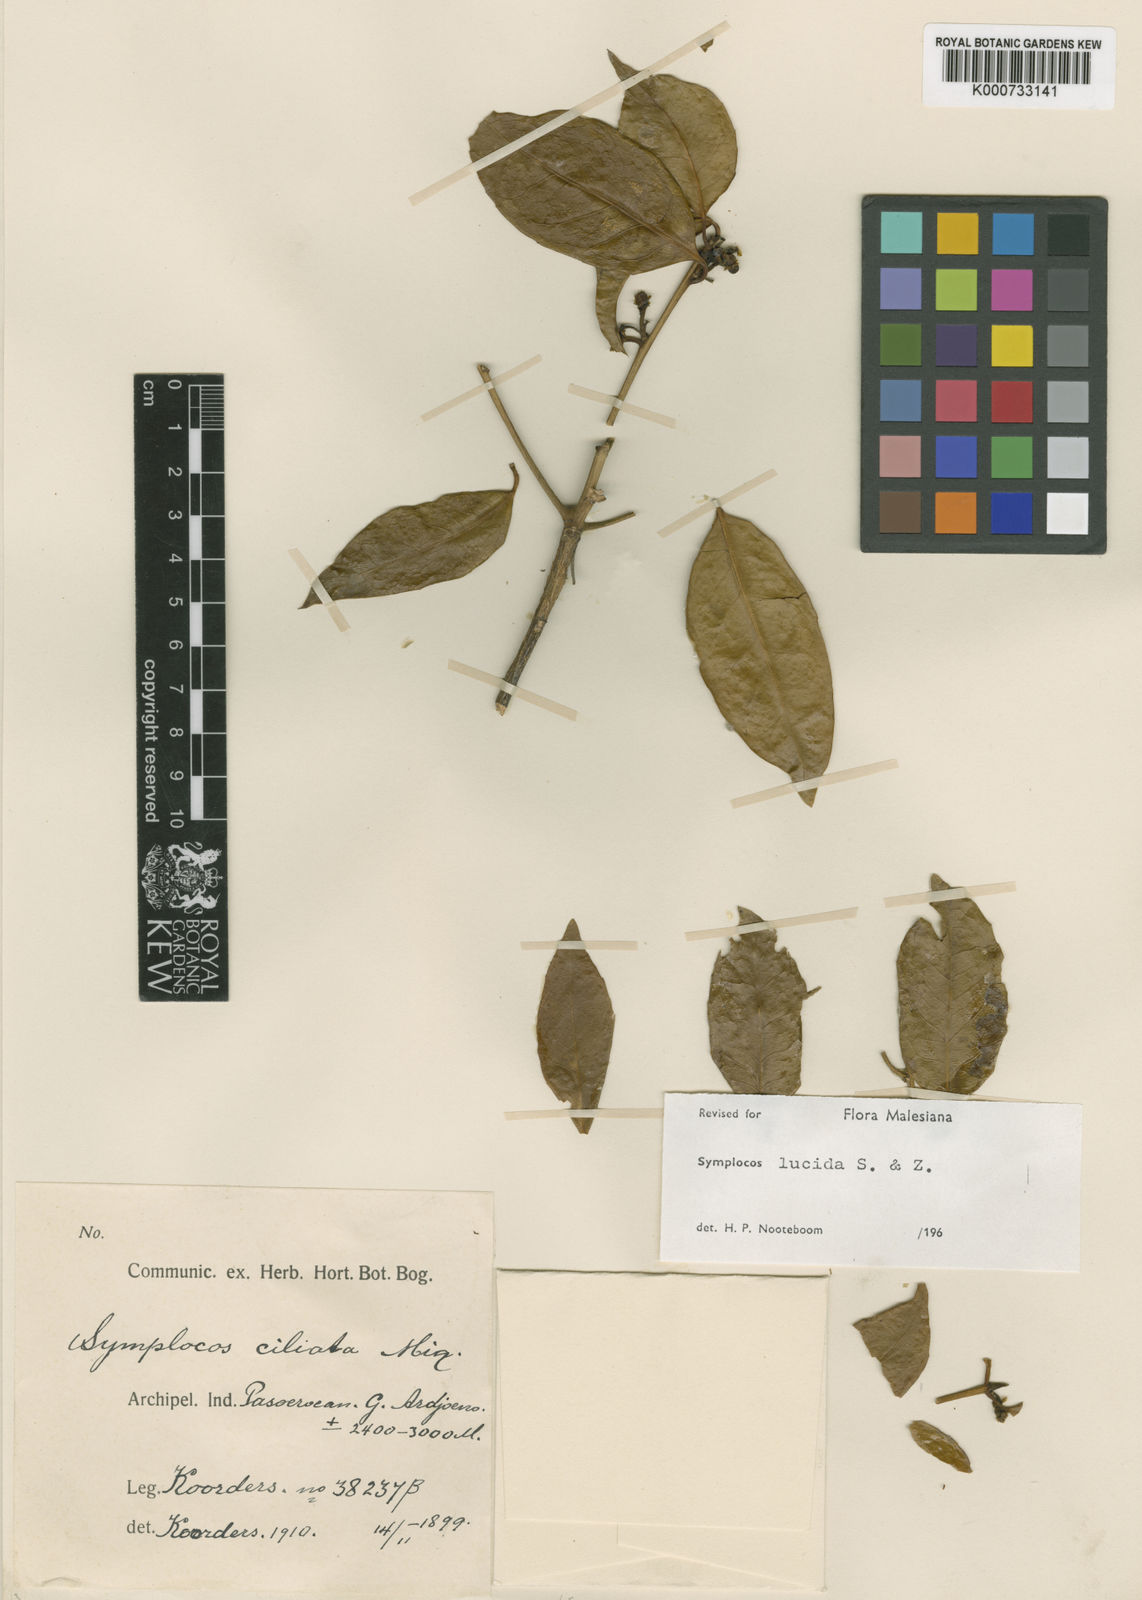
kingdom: Plantae
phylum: Tracheophyta
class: Magnoliopsida
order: Ericales
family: Symplocaceae
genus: Symplocos
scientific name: Symplocos
